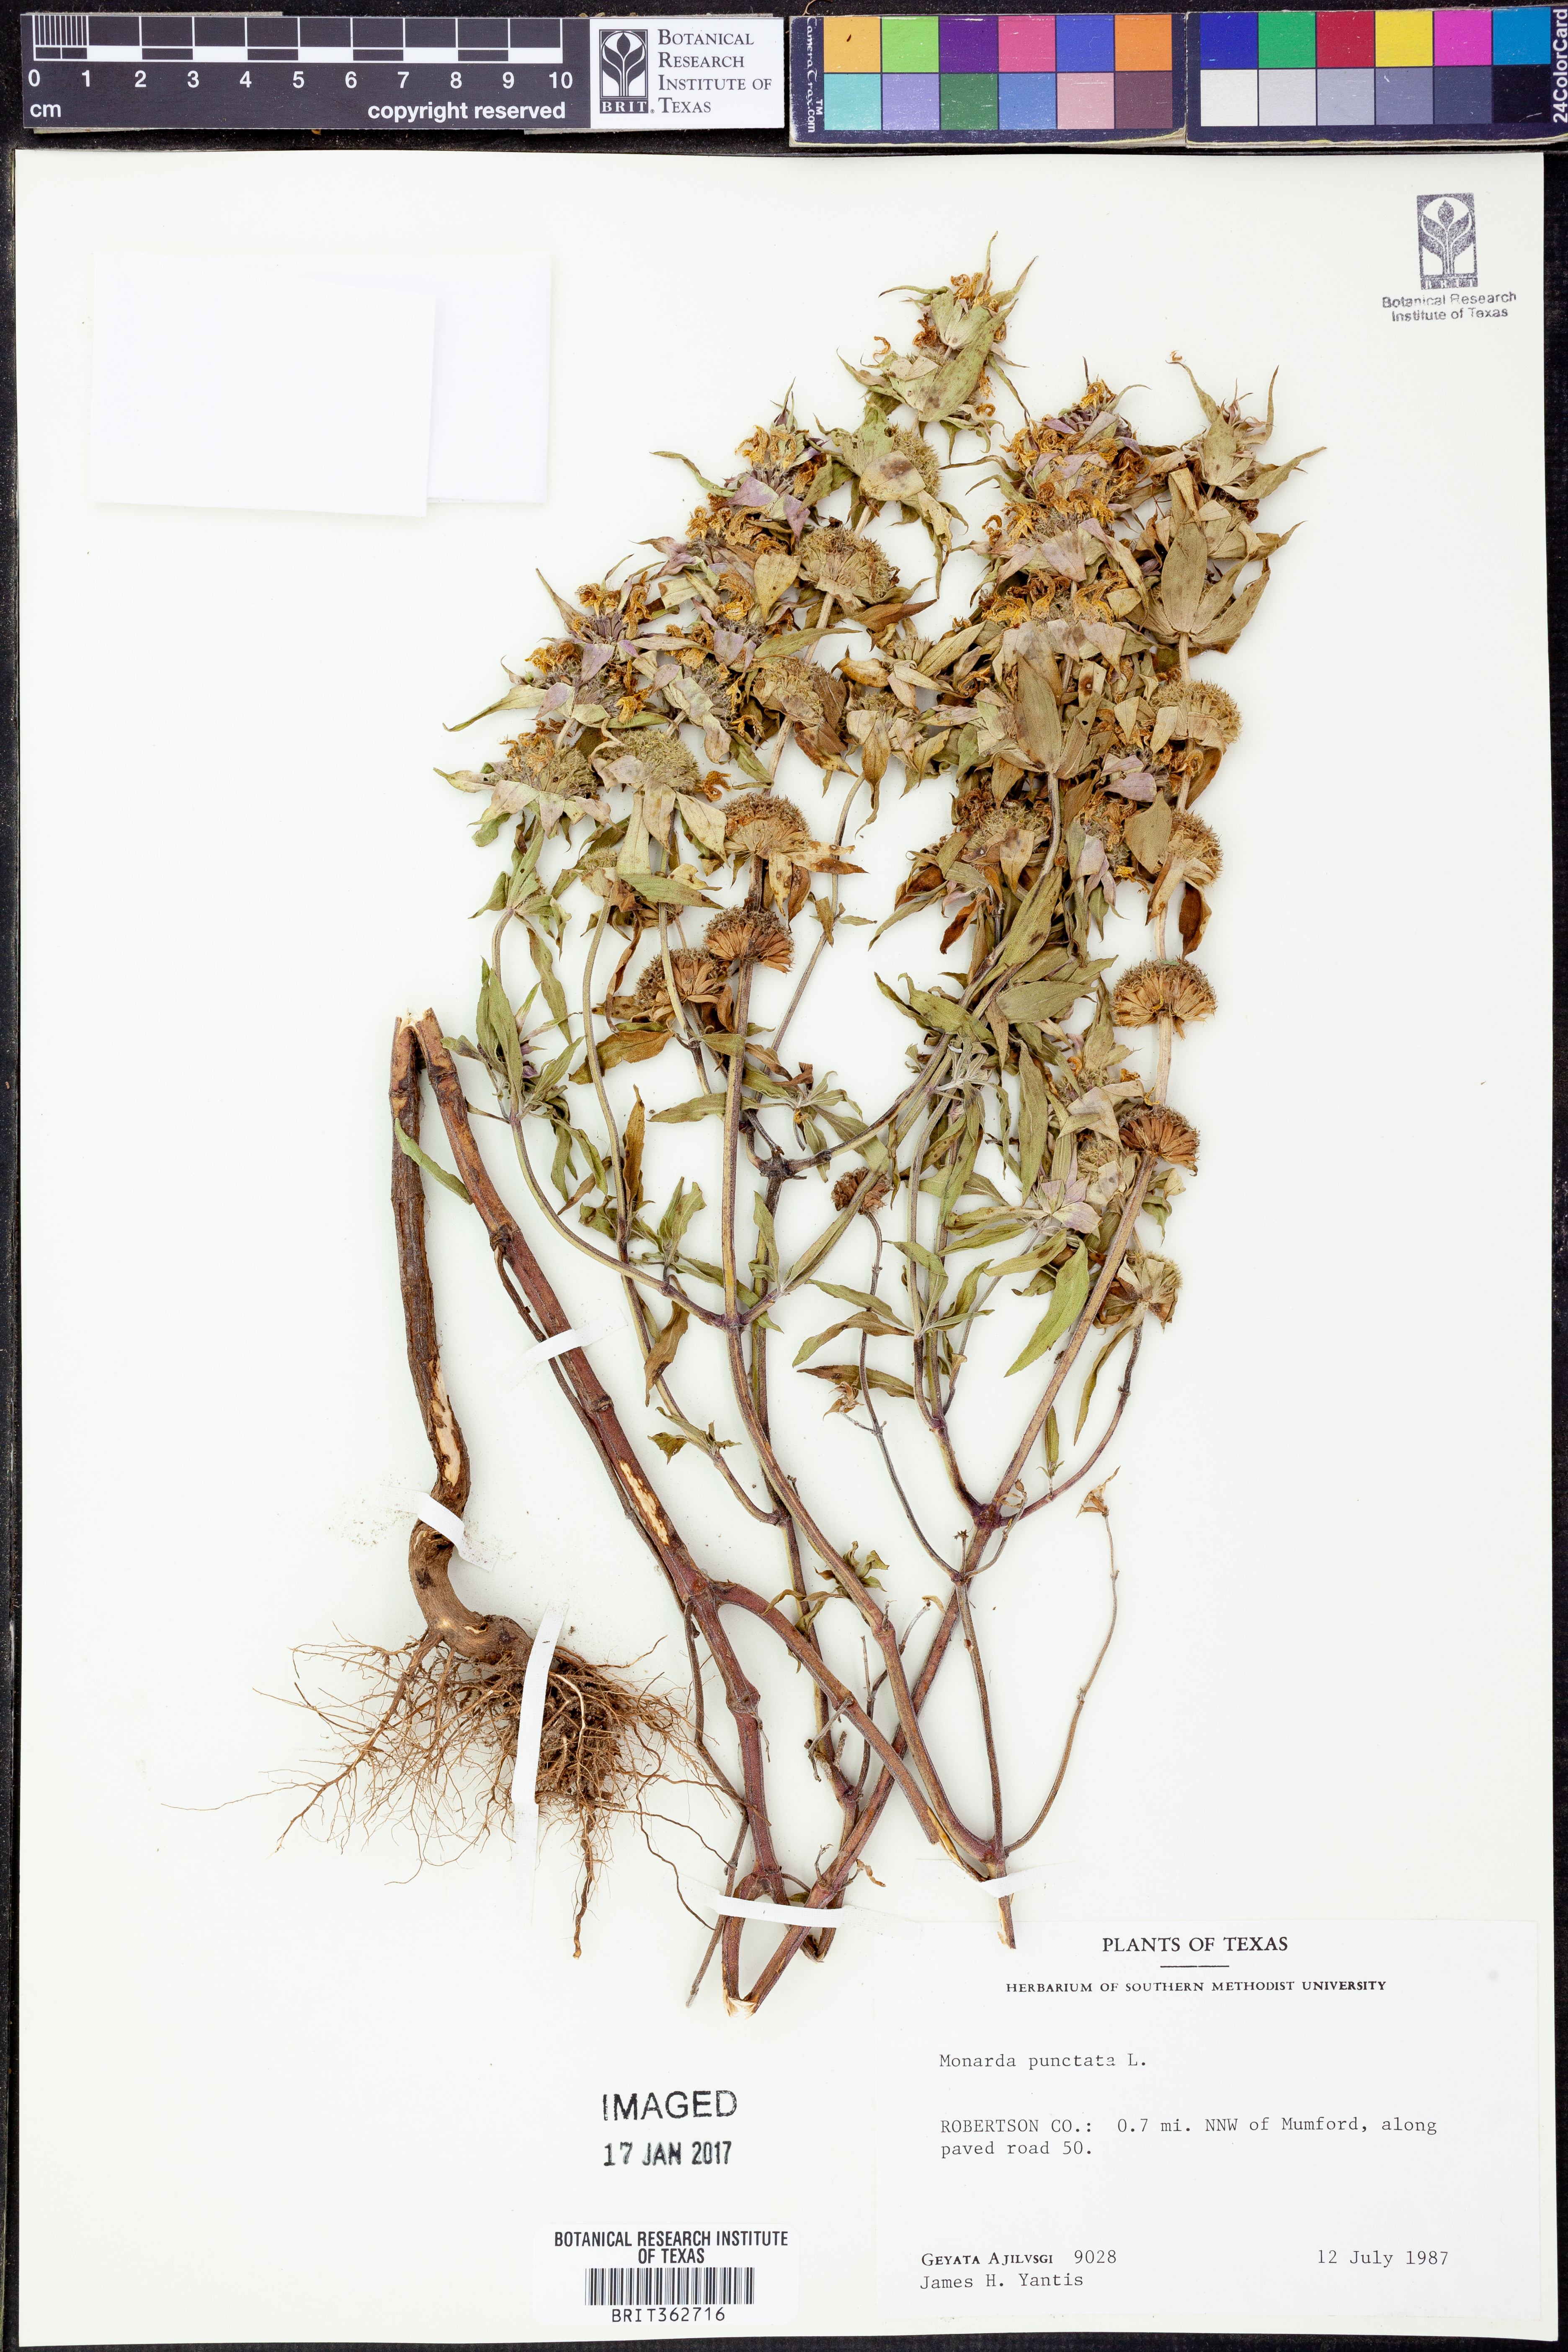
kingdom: Plantae
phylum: Tracheophyta
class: Magnoliopsida
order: Lamiales
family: Lamiaceae
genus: Monarda
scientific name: Monarda punctata
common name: Dotted monarda
